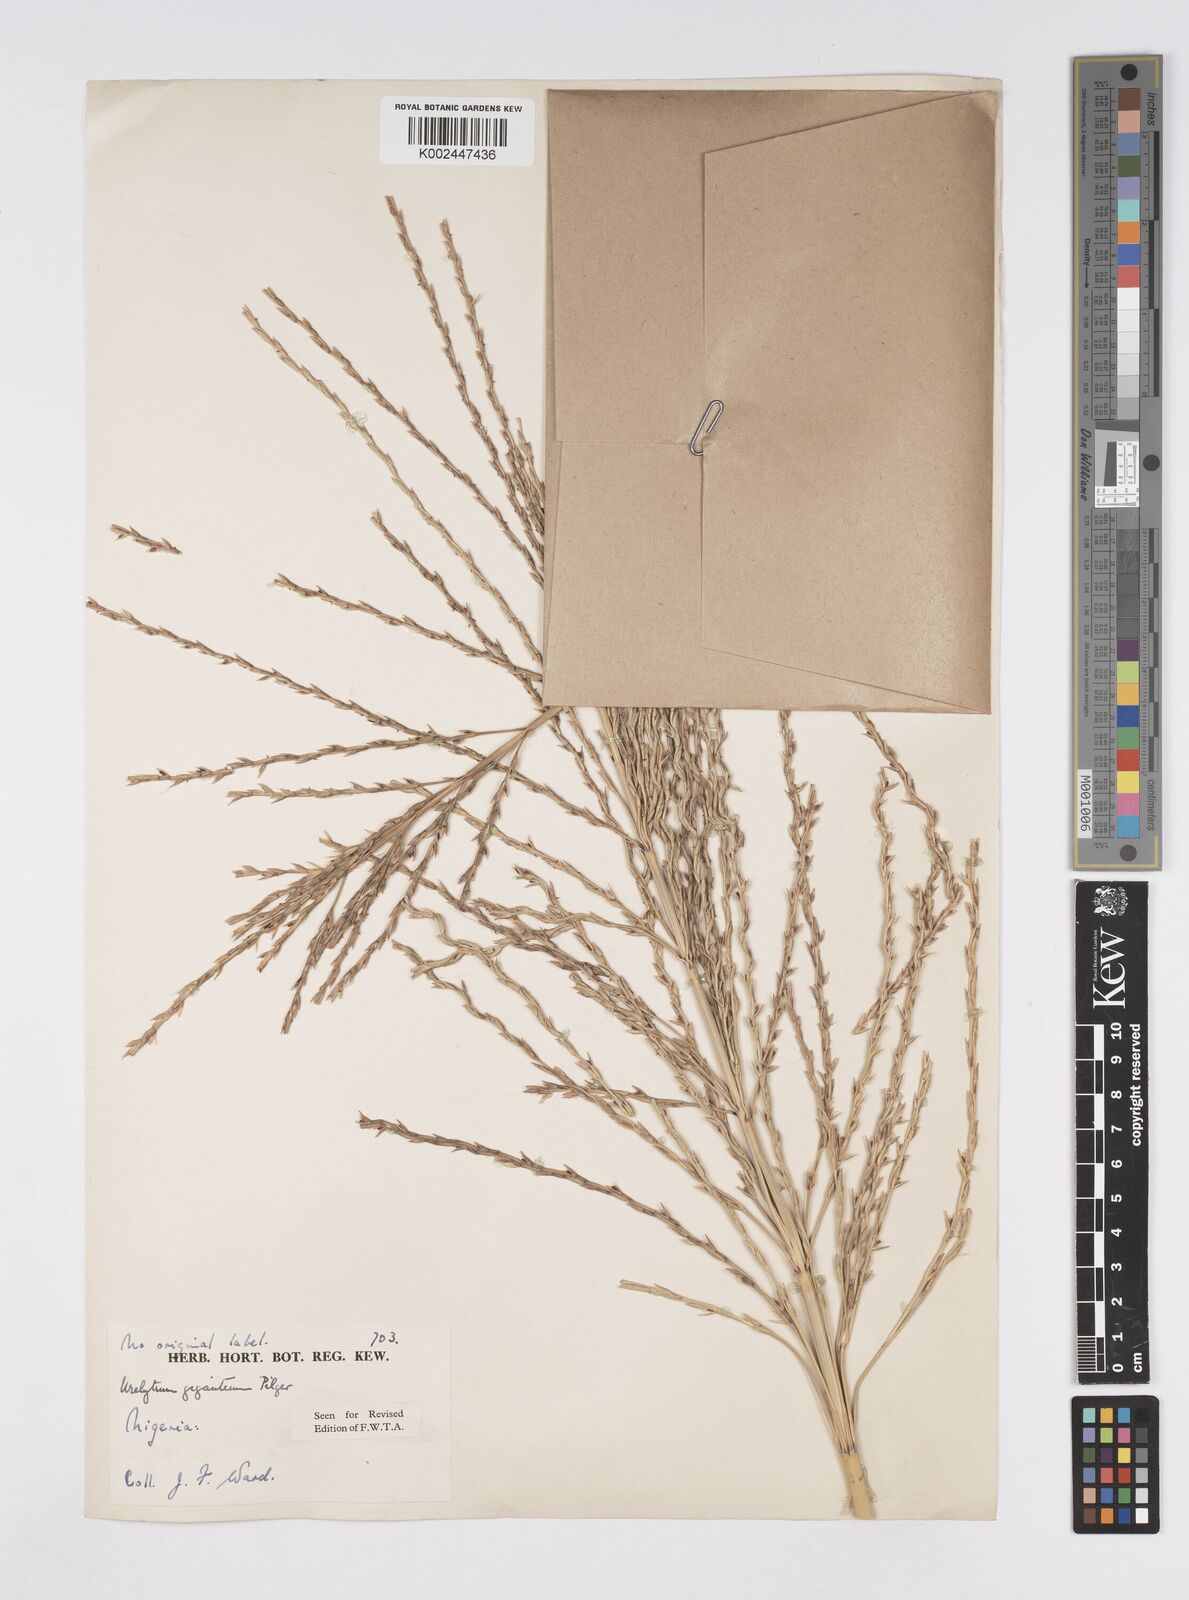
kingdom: Plantae
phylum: Tracheophyta
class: Liliopsida
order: Poales
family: Poaceae
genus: Urelytrum
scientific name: Urelytrum giganteum
